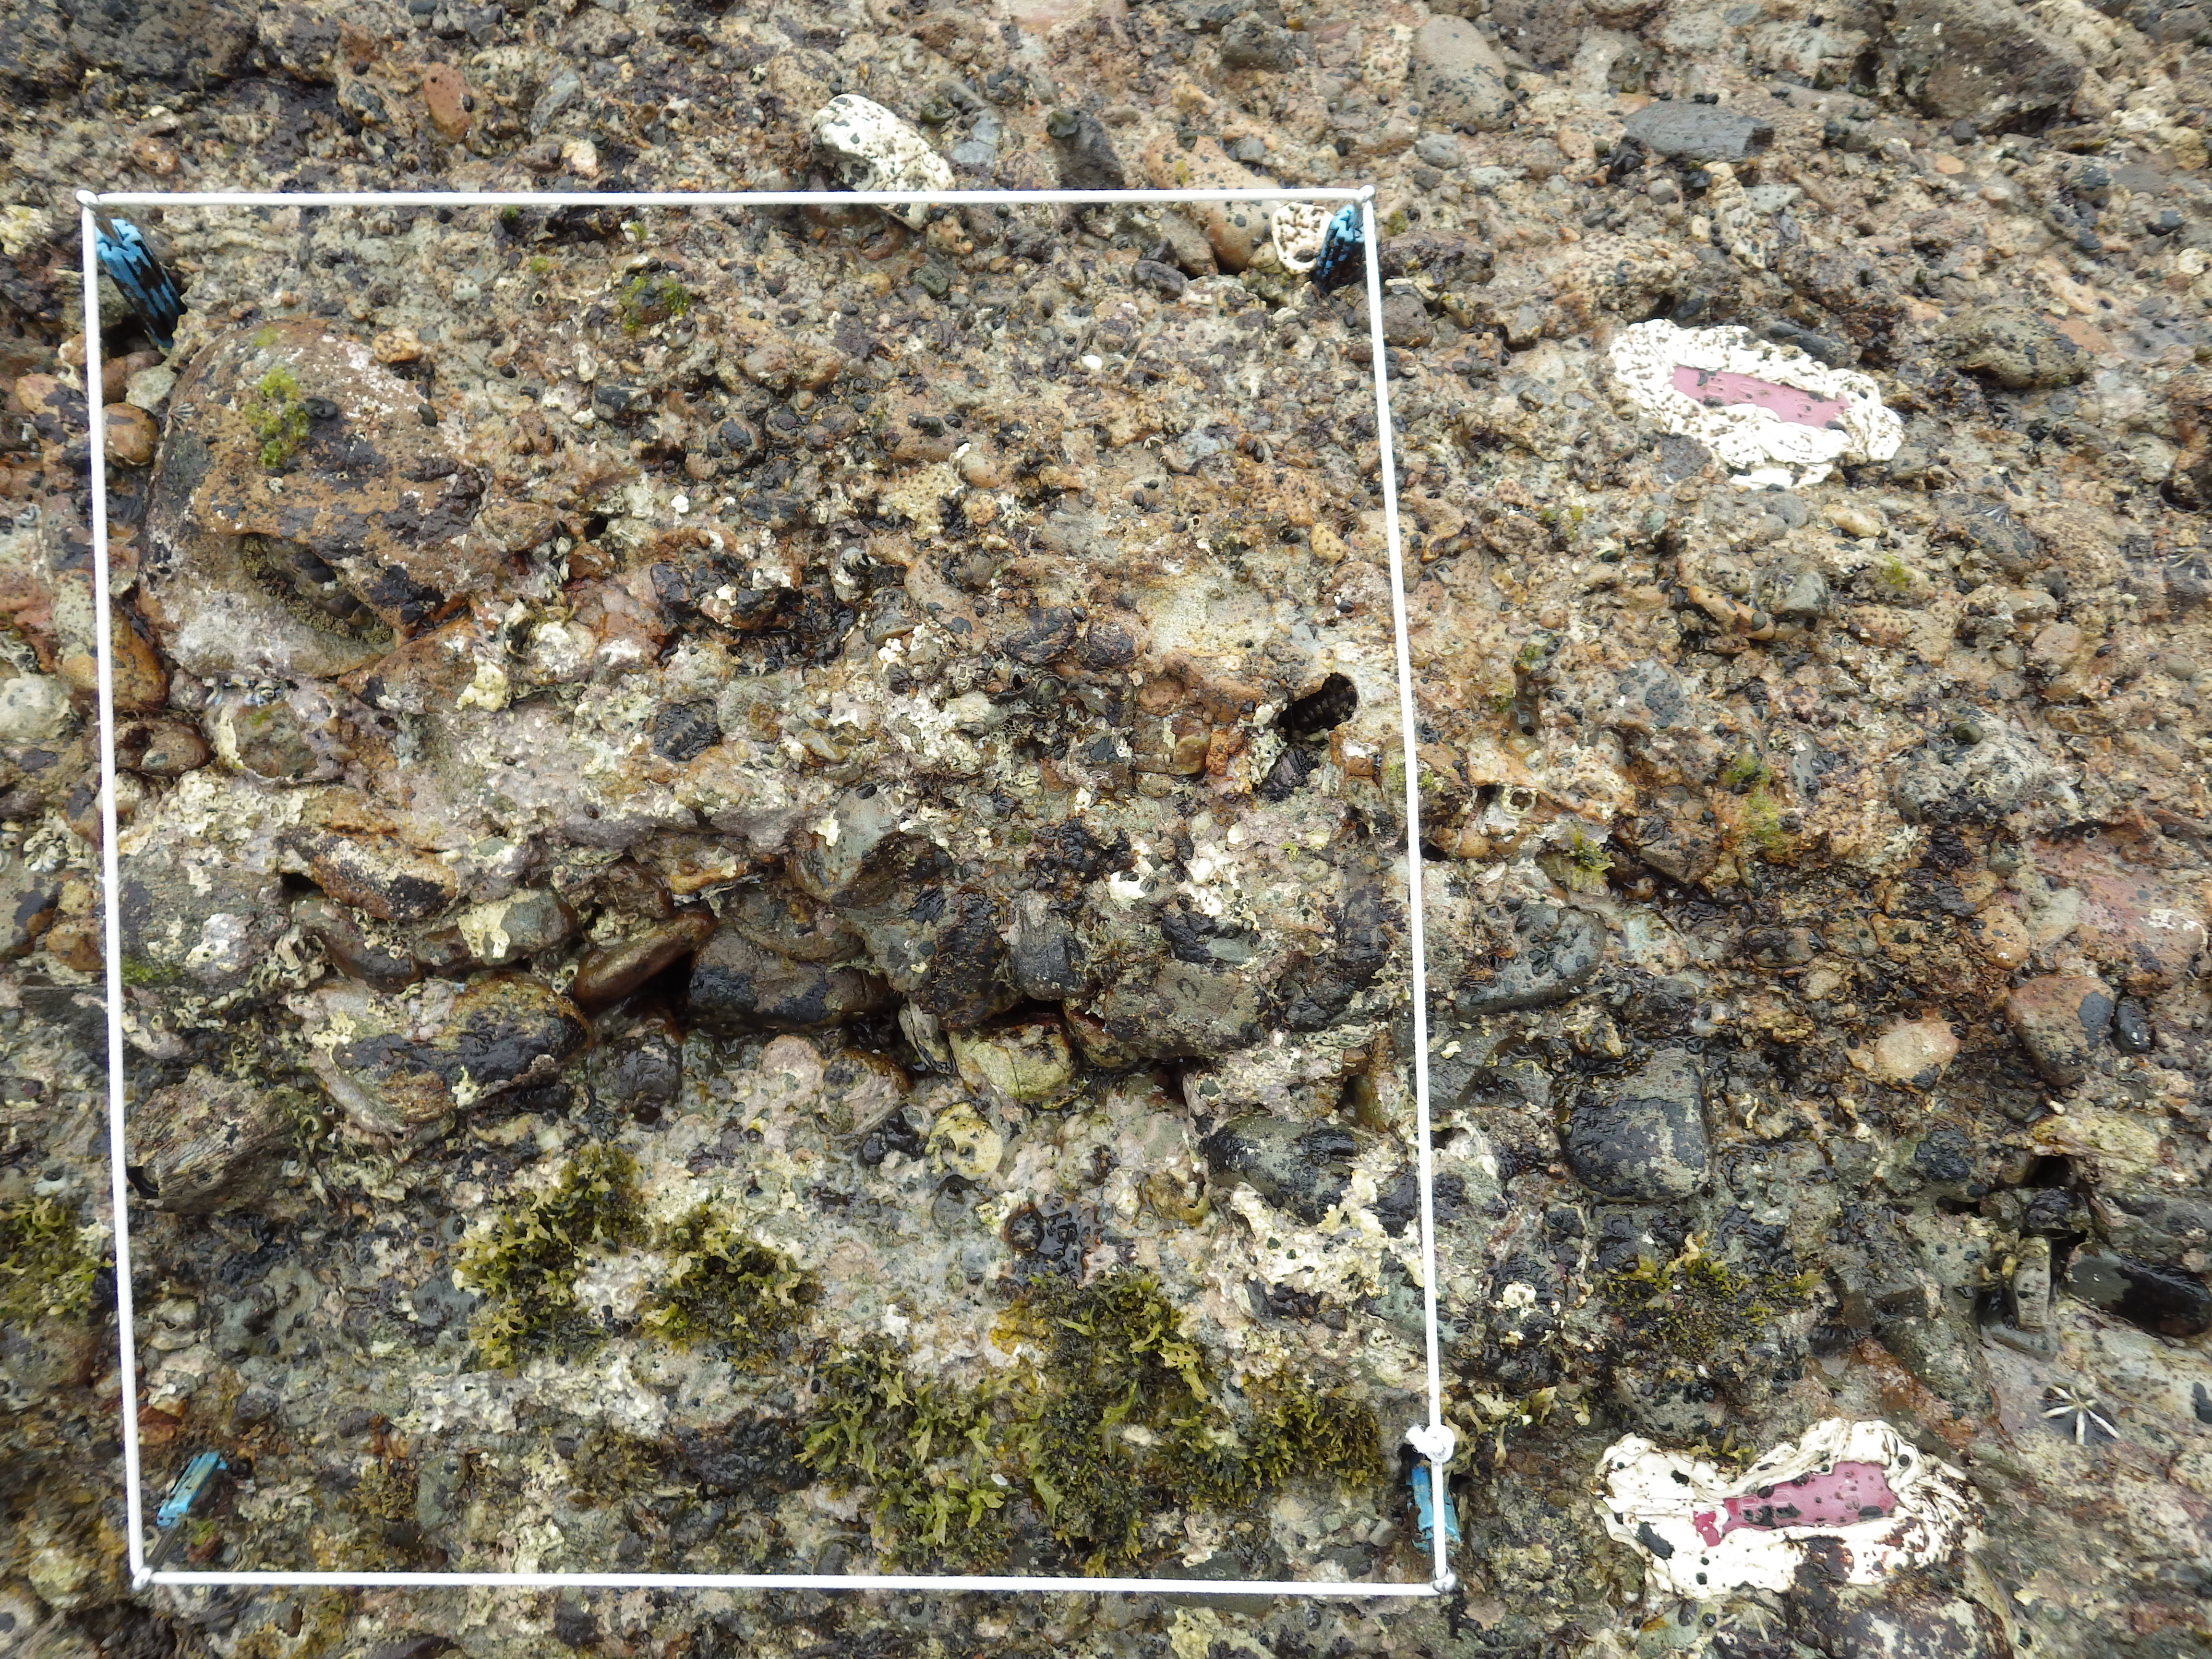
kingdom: Animalia
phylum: Arthropoda
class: Maxillopoda
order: Sessilia
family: Chthamalidae
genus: Chthamalus
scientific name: Chthamalus challengeri
